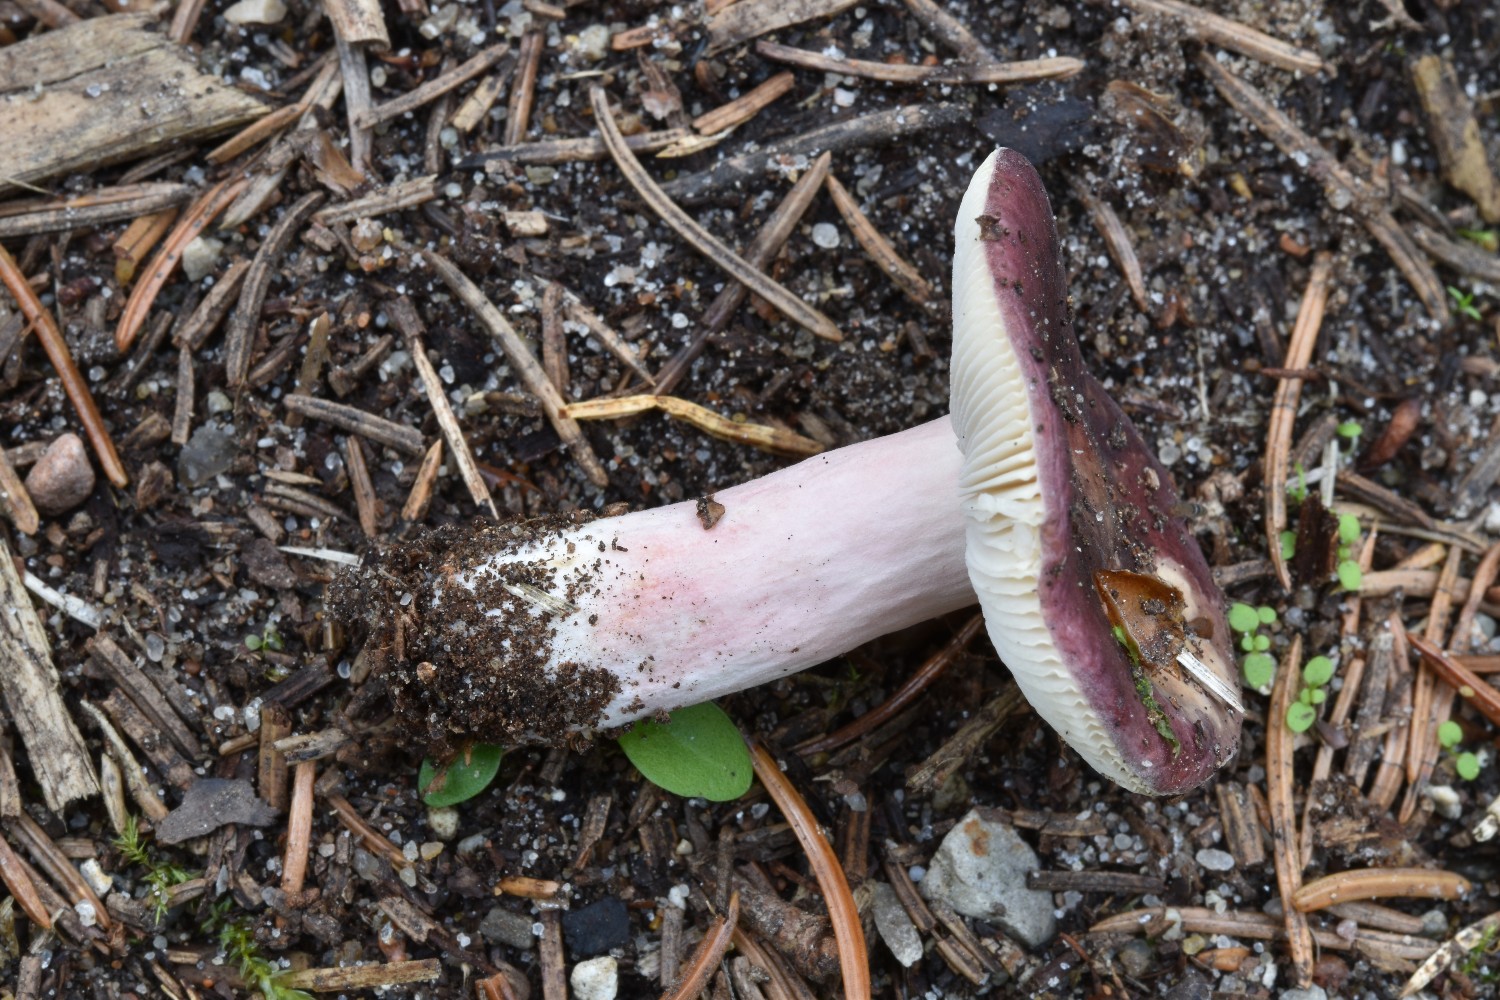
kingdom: Fungi
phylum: Basidiomycota
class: Agaricomycetes
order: Russulales
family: Russulaceae
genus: Russula
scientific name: Russula queletii
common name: Quélets skørhat
